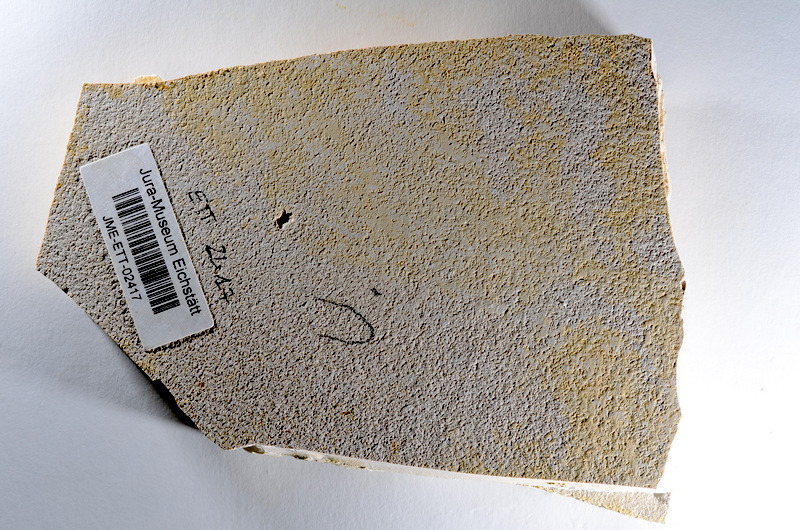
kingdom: Animalia
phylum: Chordata
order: Salmoniformes
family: Orthogonikleithridae
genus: Orthogonikleithrus
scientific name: Orthogonikleithrus hoelli
